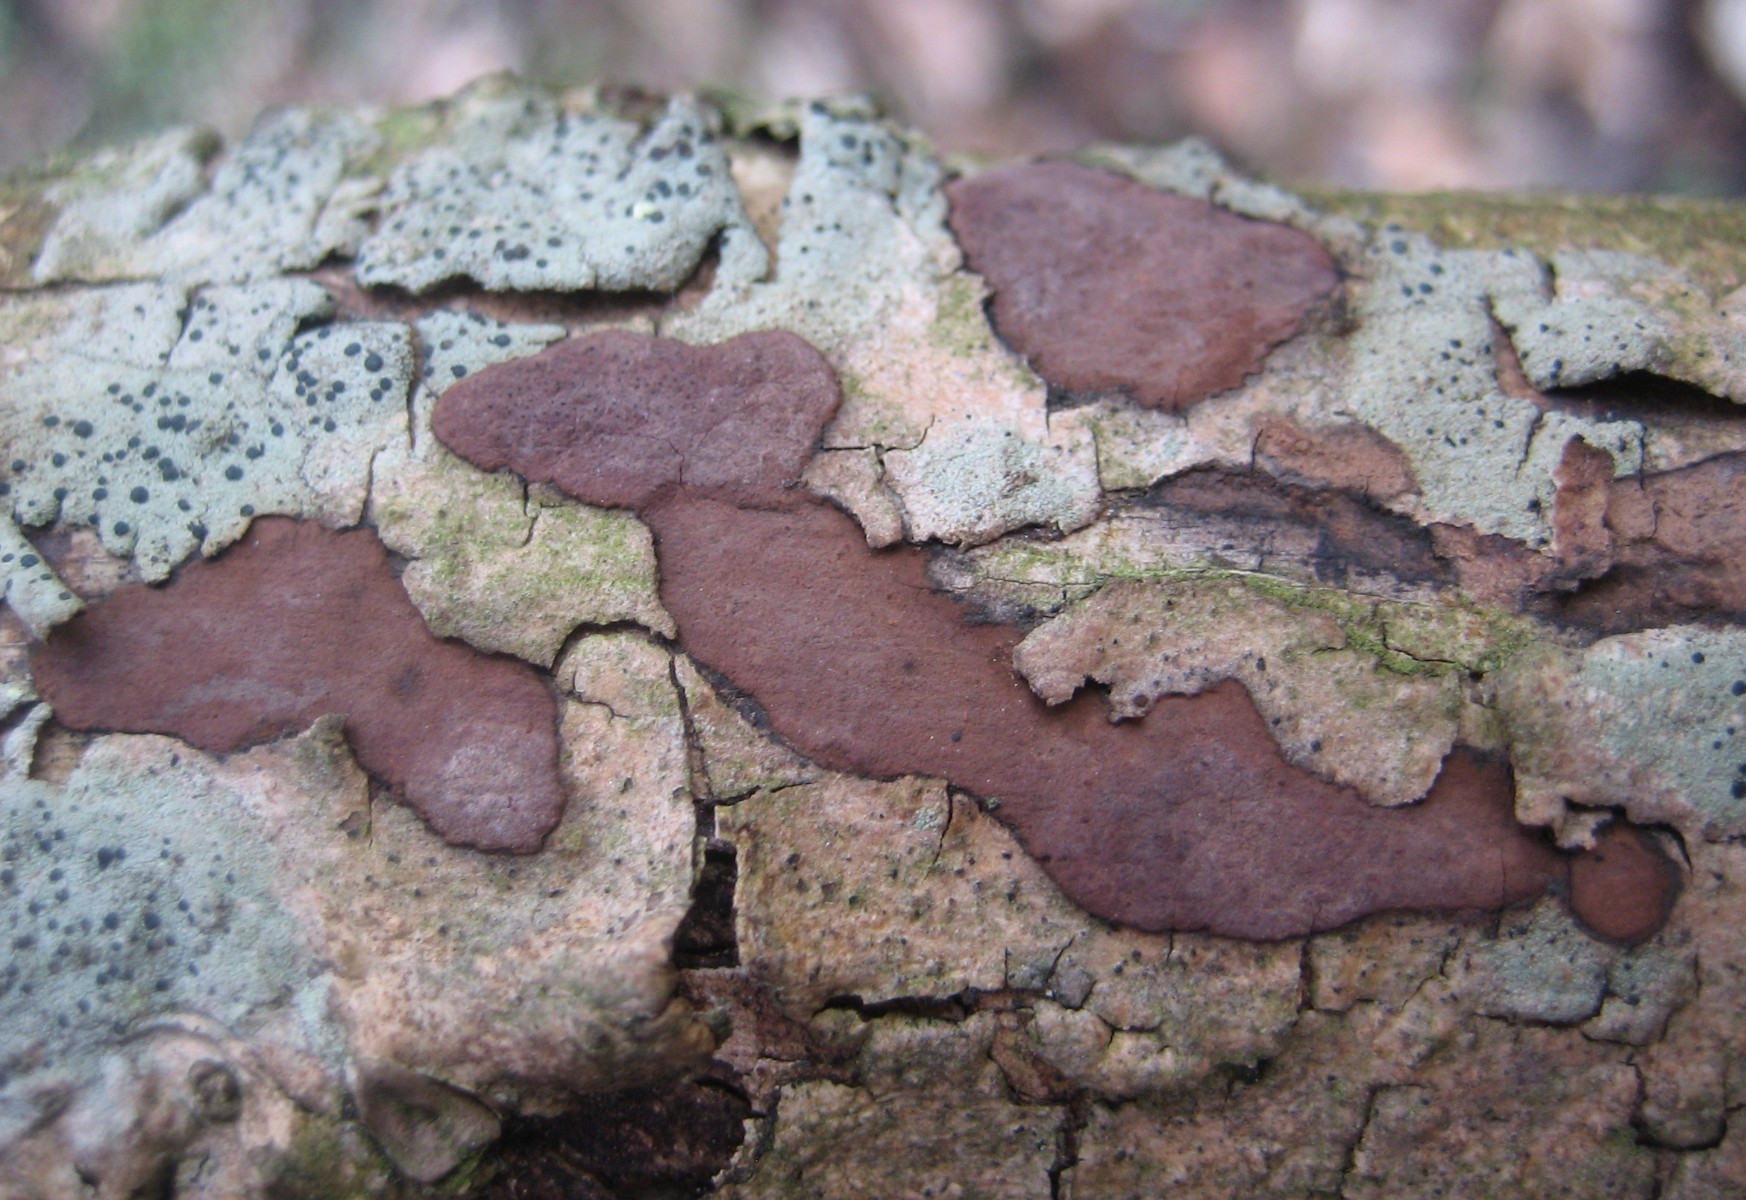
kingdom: Fungi
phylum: Ascomycota
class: Sordariomycetes
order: Xylariales
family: Hypoxylaceae
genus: Hypoxylon
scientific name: Hypoxylon petriniae
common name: nedsænket kulbær
